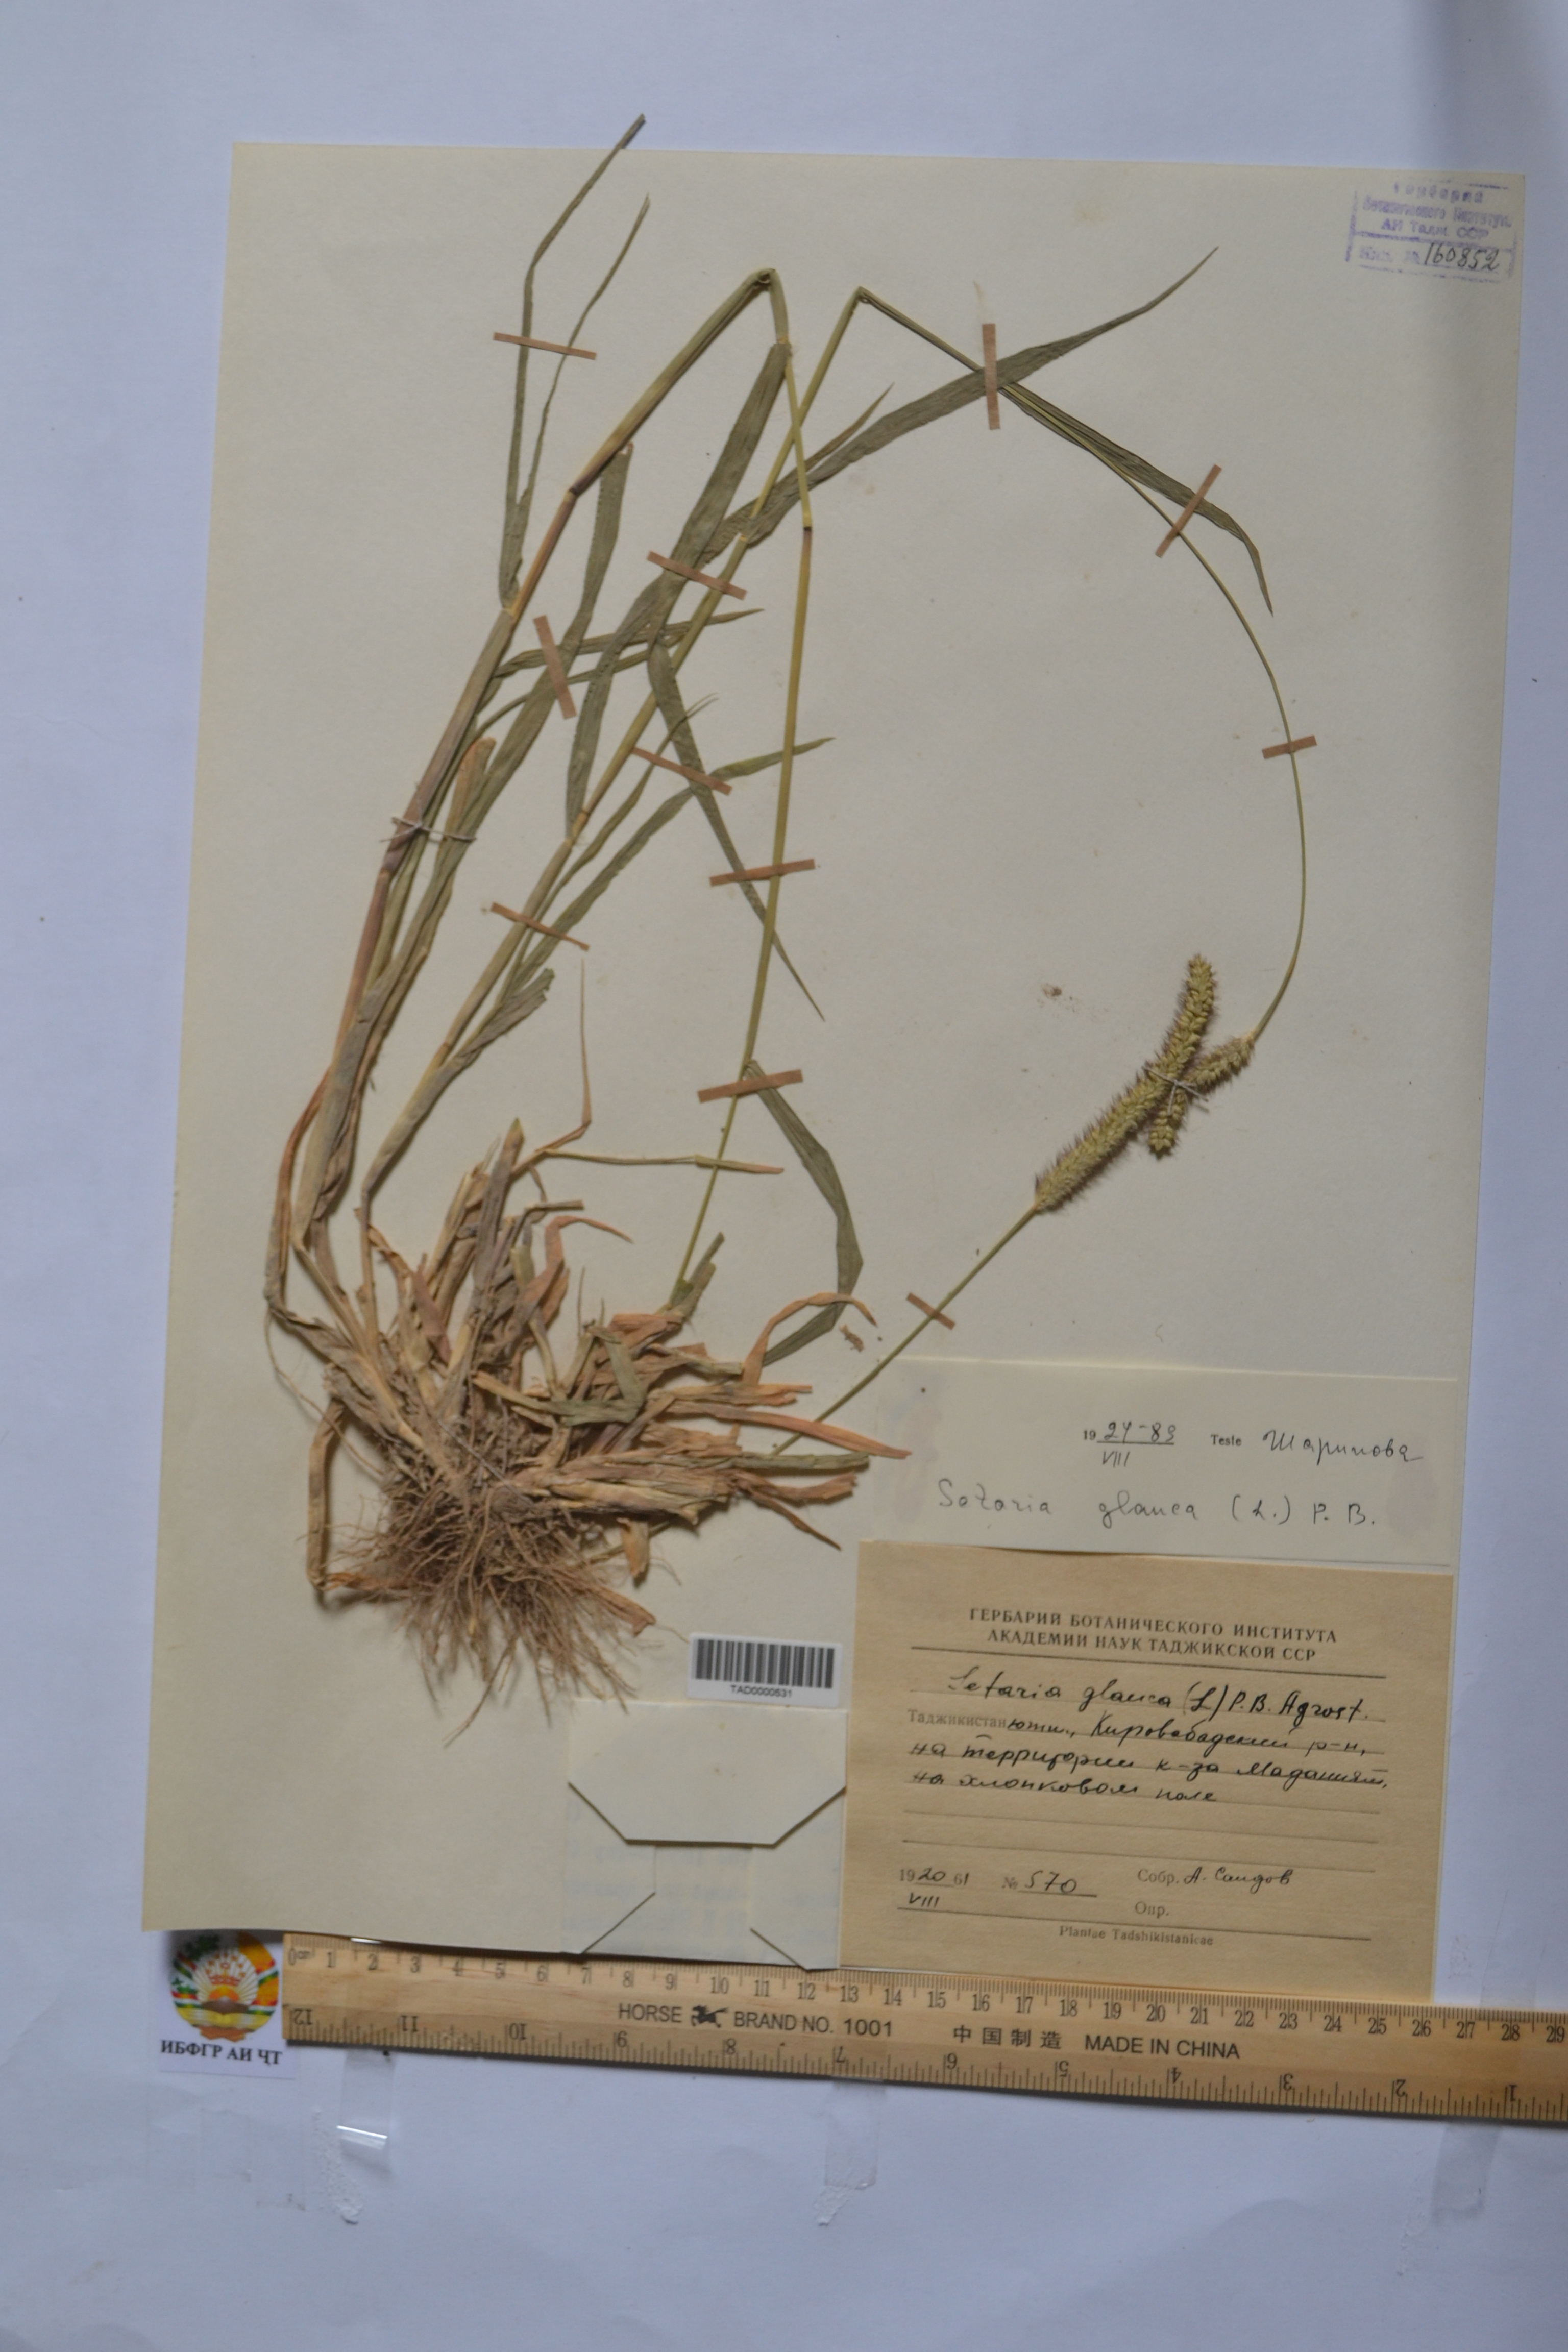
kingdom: Plantae
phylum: Tracheophyta
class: Liliopsida
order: Poales
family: Poaceae
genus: Cenchrus
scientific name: Cenchrus americanus
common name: Pearl millet
